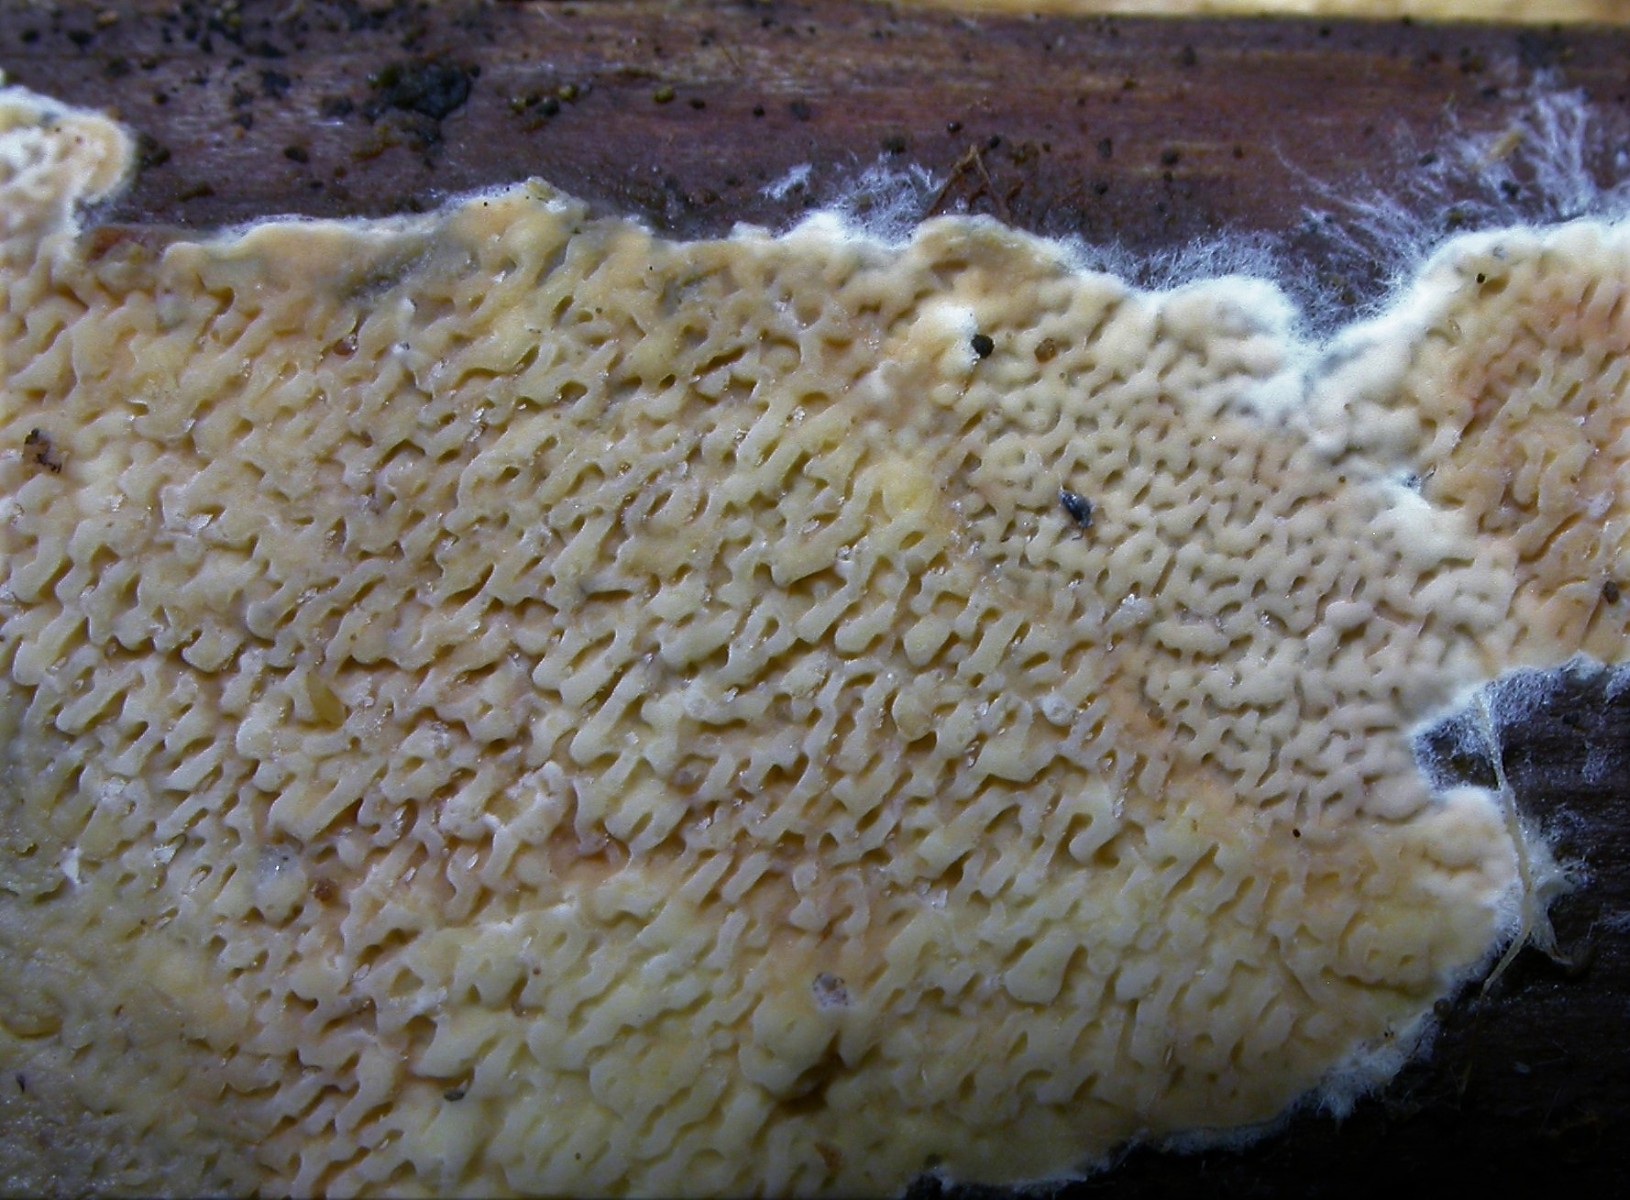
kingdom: Fungi
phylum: Basidiomycota
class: Agaricomycetes
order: Polyporales
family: Irpicaceae
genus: Crystallicutis
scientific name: Crystallicutis serpens
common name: gråviolet barkhinde
